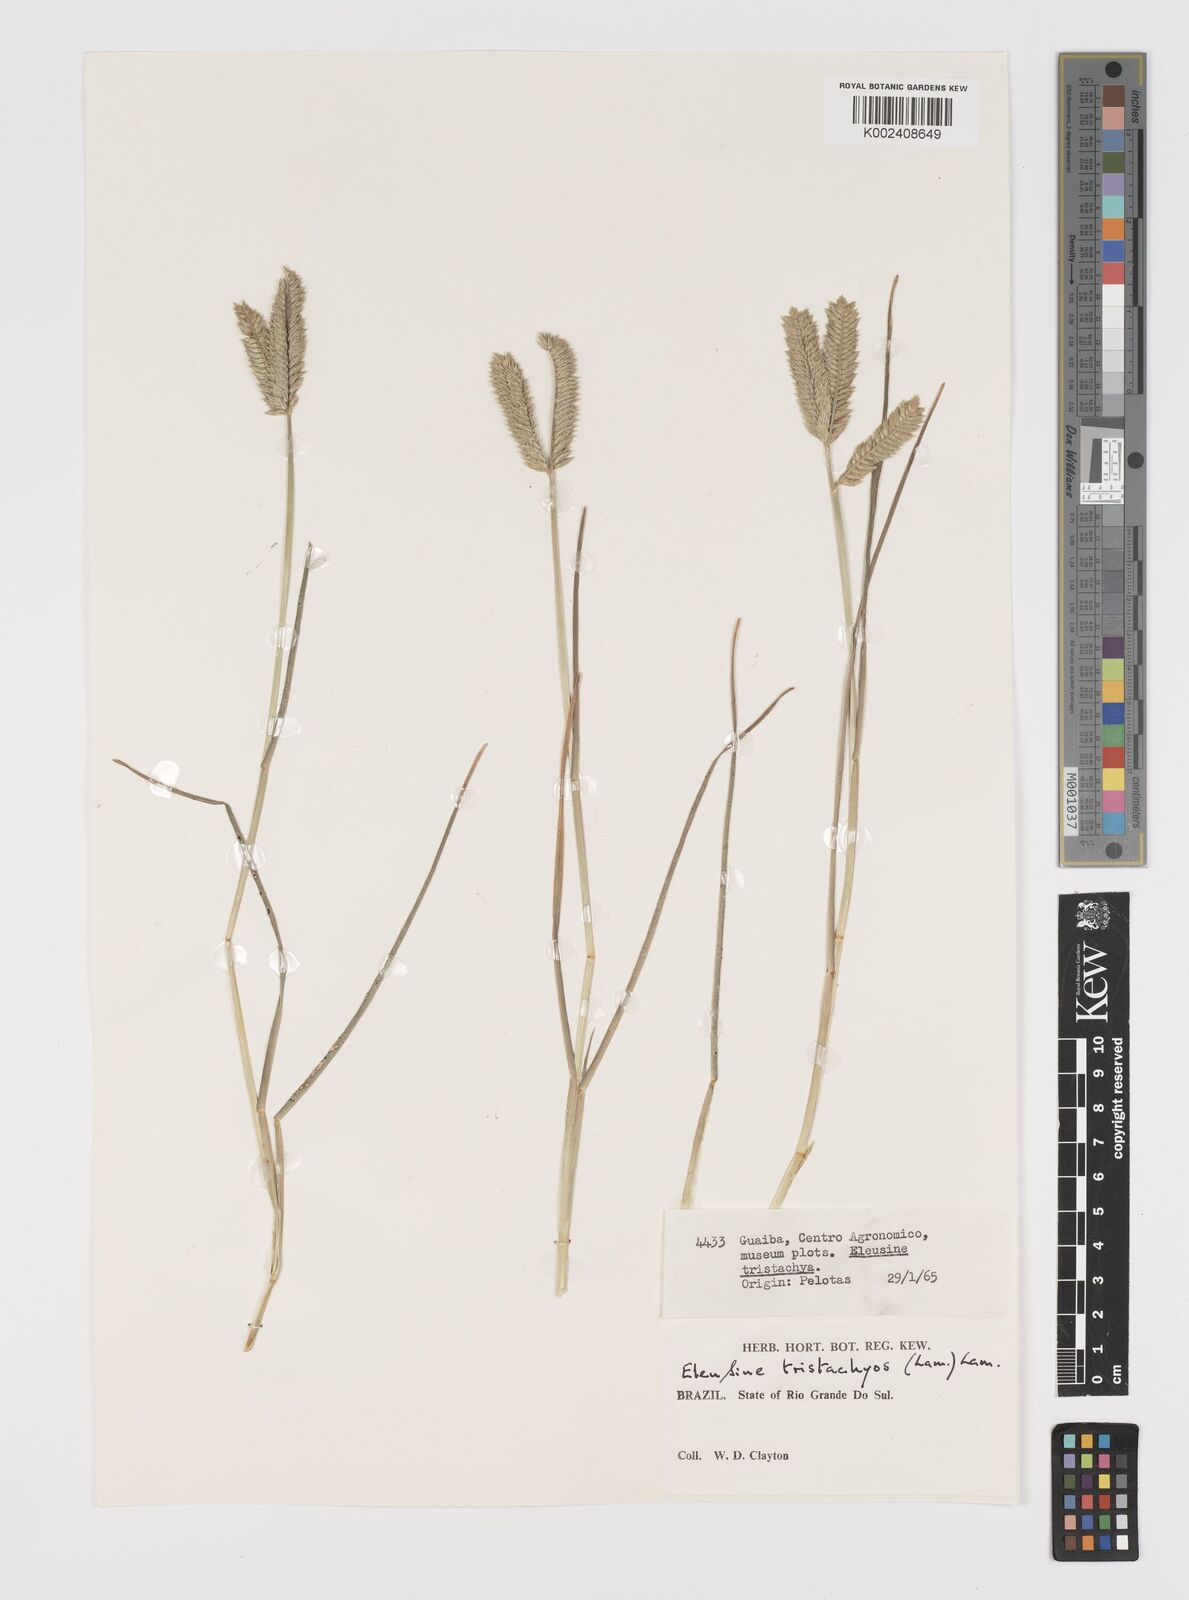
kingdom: Plantae
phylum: Tracheophyta
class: Liliopsida
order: Poales
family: Poaceae
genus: Eleusine
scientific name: Eleusine tristachya
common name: American yard-grass
